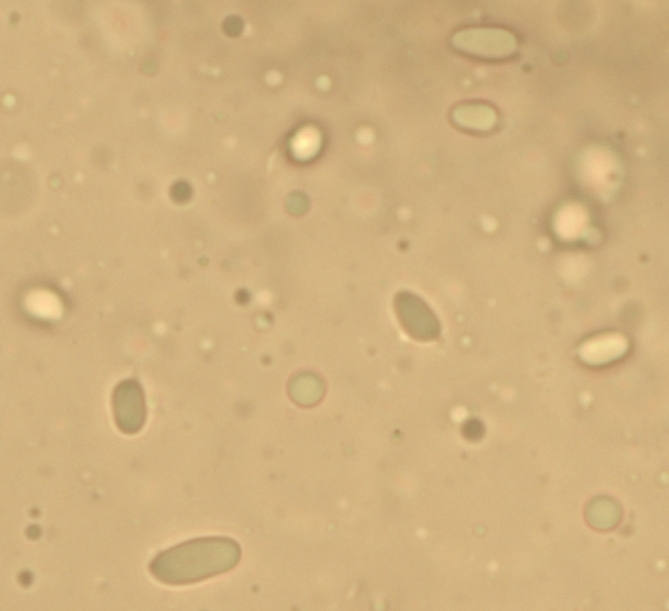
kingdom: Fungi
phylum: Basidiomycota
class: Agaricomycetes
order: Agaricales
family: Tricholomataceae
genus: Clitocybe
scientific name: Clitocybe amarescens
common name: gødnings-tragthat
